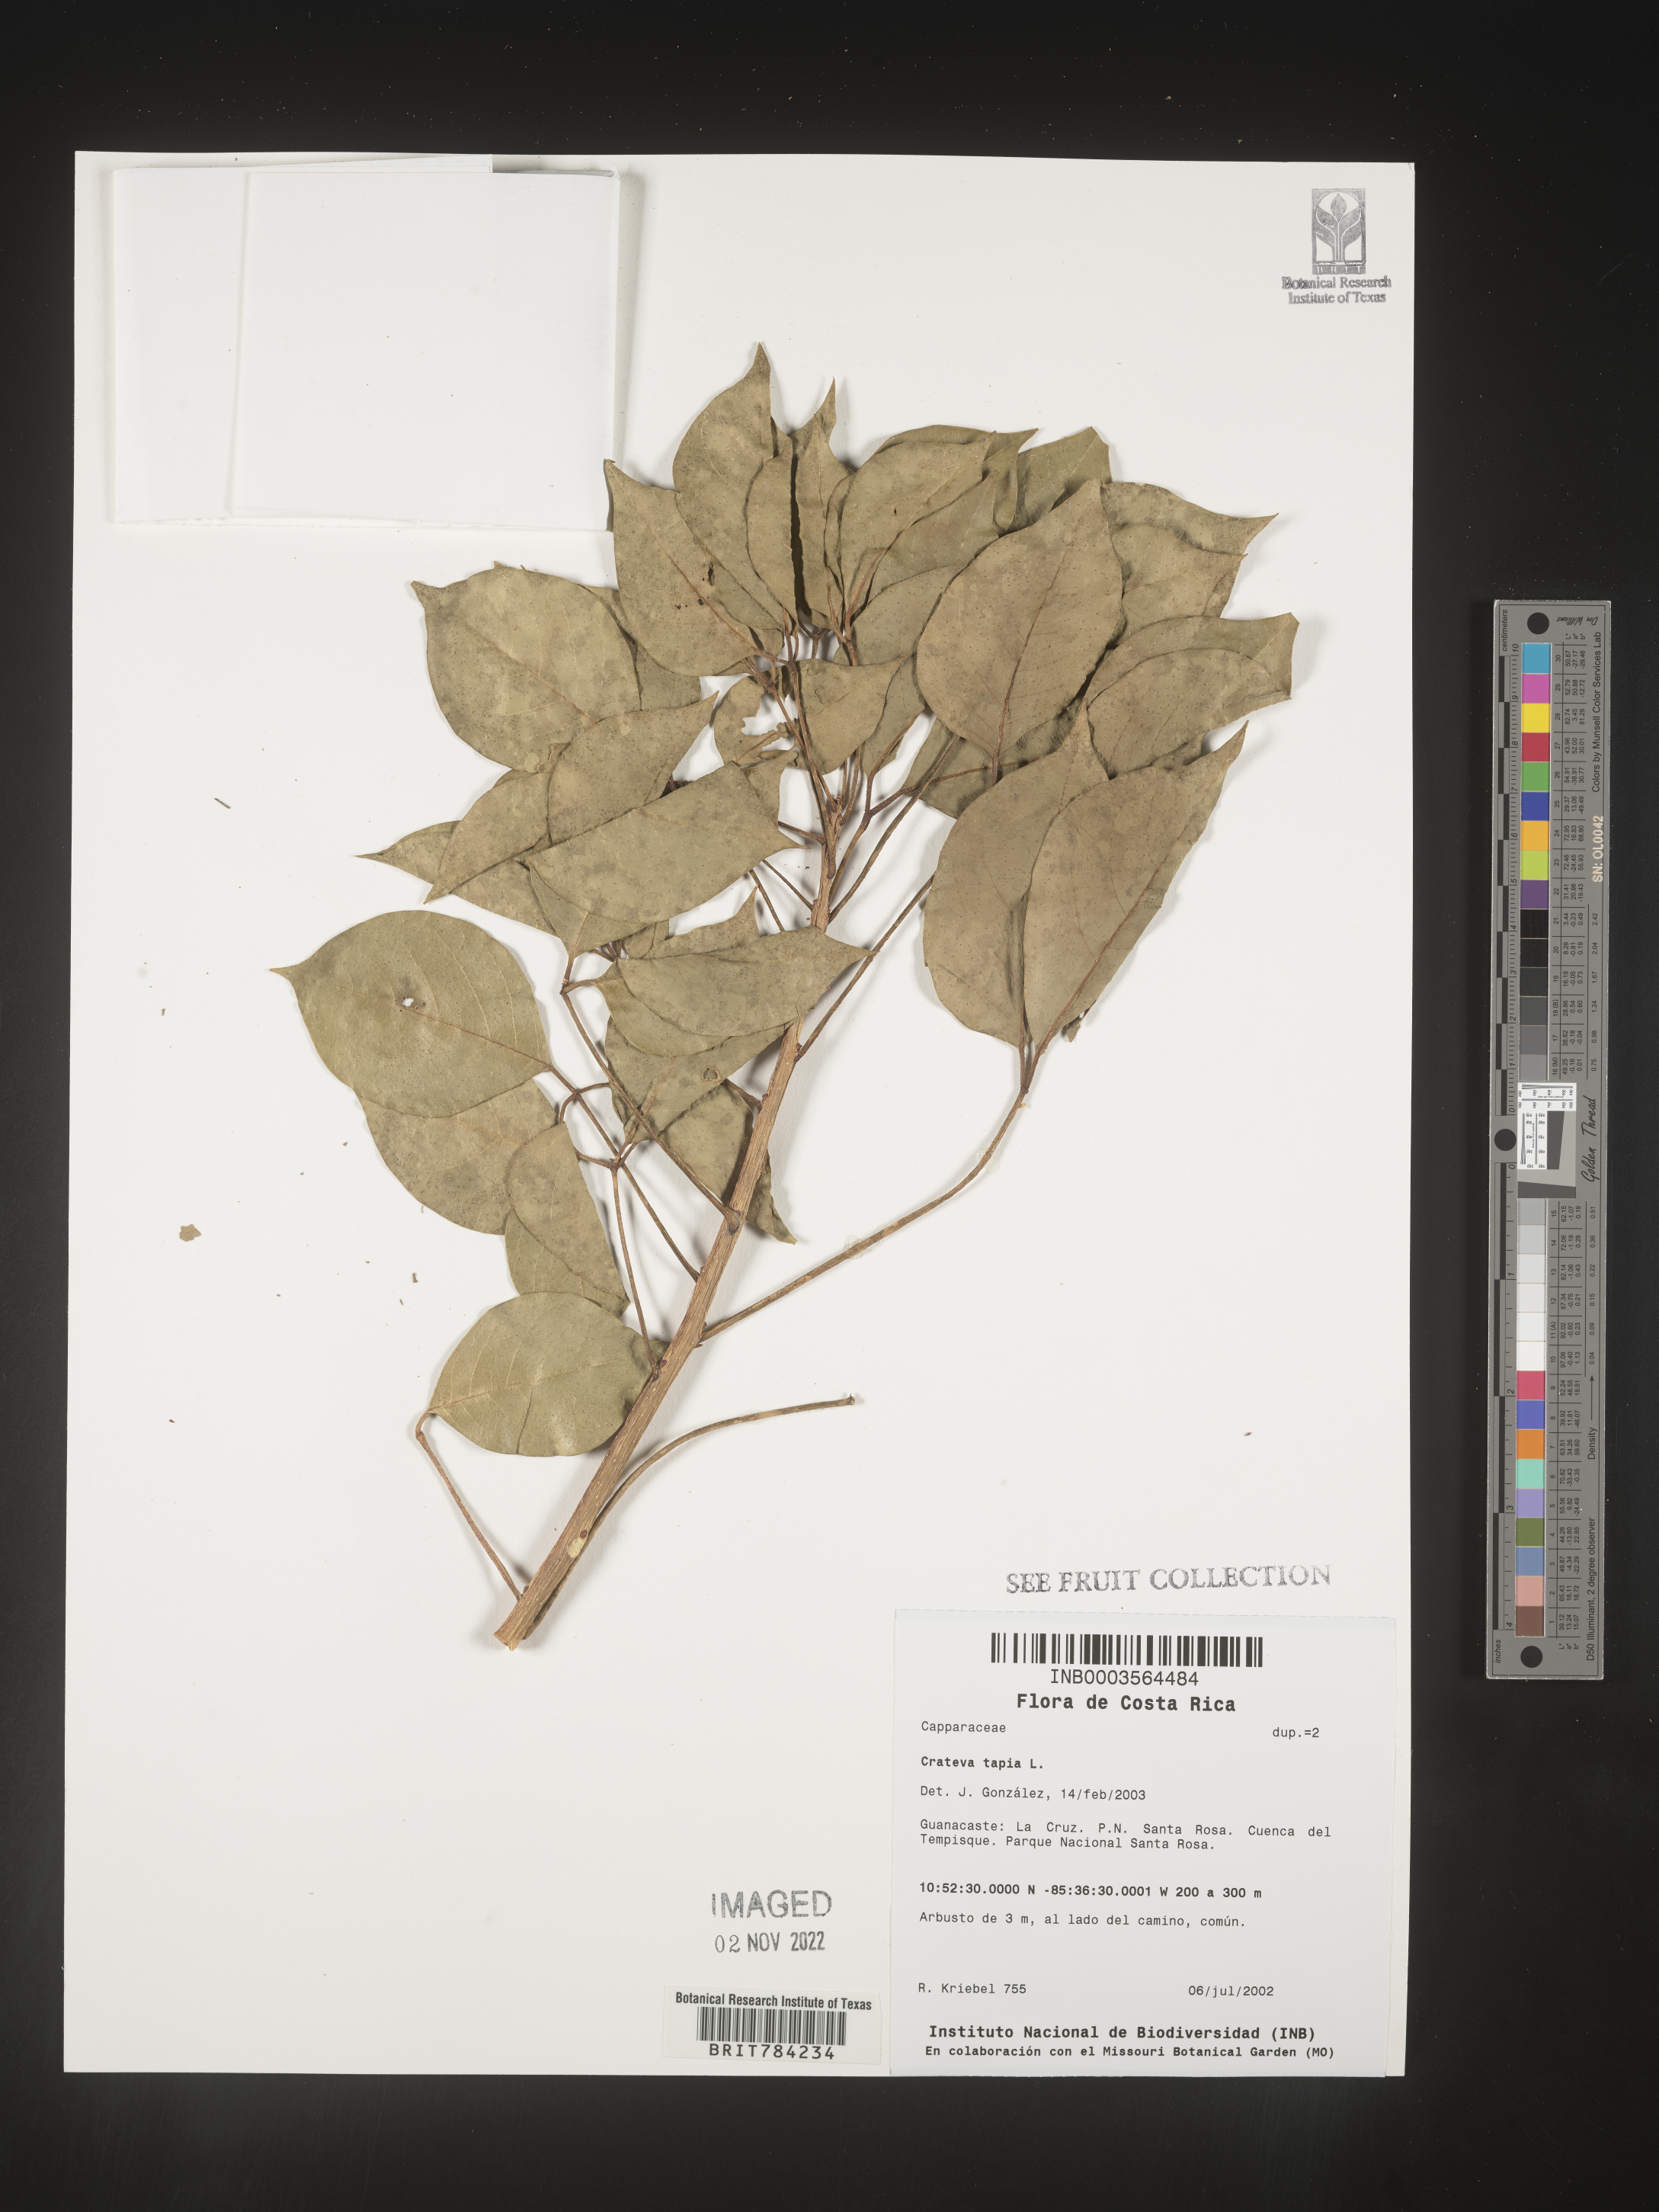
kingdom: Plantae
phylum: Tracheophyta
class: Magnoliopsida
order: Brassicales
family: Capparaceae
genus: Crateva
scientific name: Crateva
